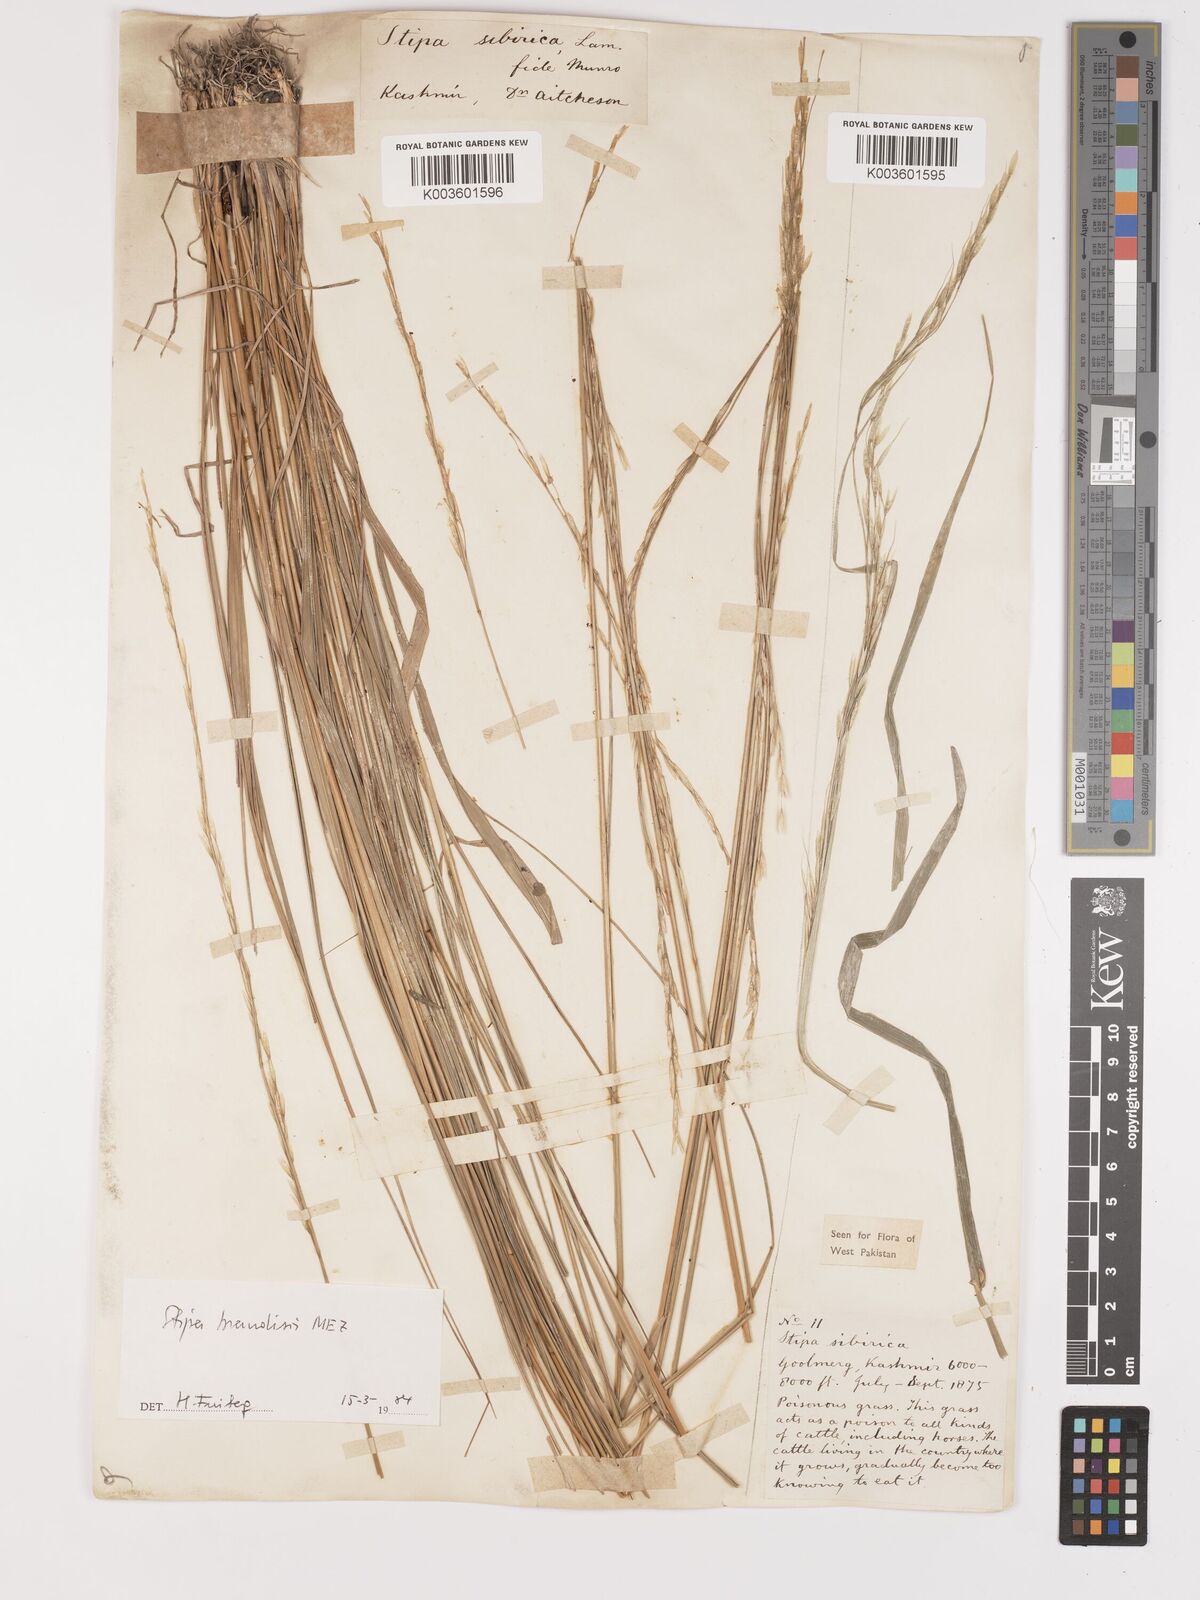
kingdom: Plantae
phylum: Tracheophyta
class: Liliopsida
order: Poales
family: Poaceae
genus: Achnatherum
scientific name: Achnatherum brandisii
